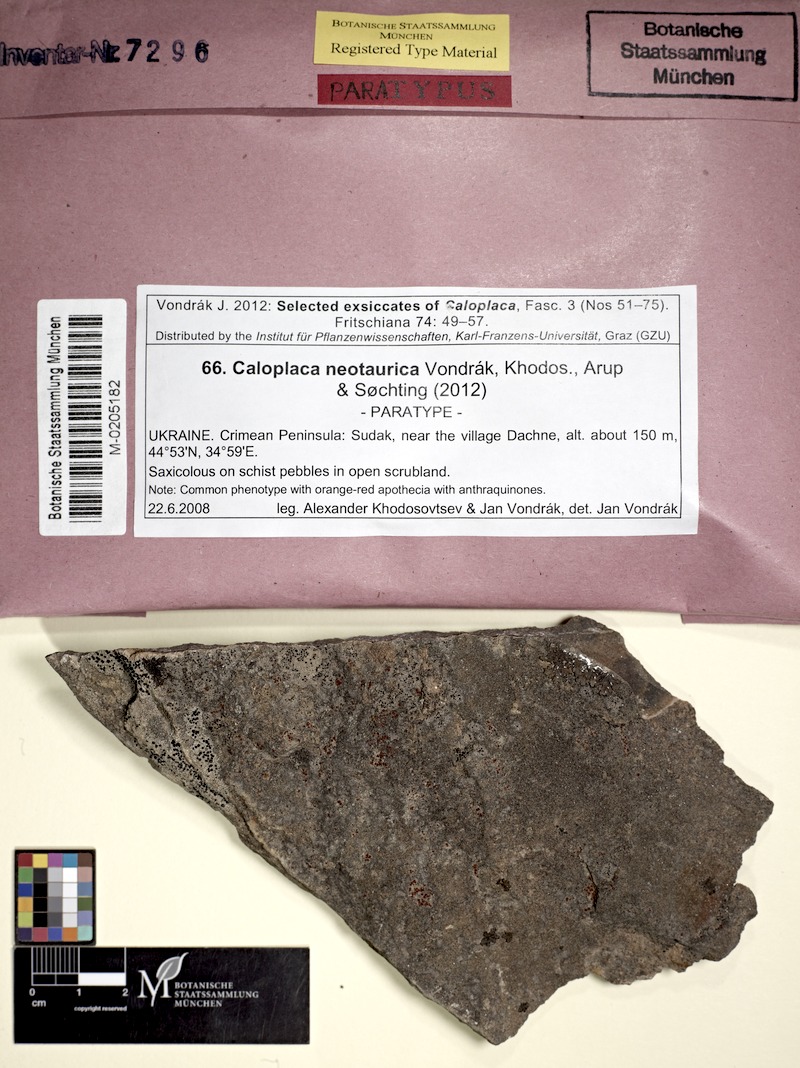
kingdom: Fungi
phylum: Ascomycota
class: Lecanoromycetes
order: Teloschistales
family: Teloschistaceae
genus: Kuettlingeria
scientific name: Kuettlingeria neotaurica
